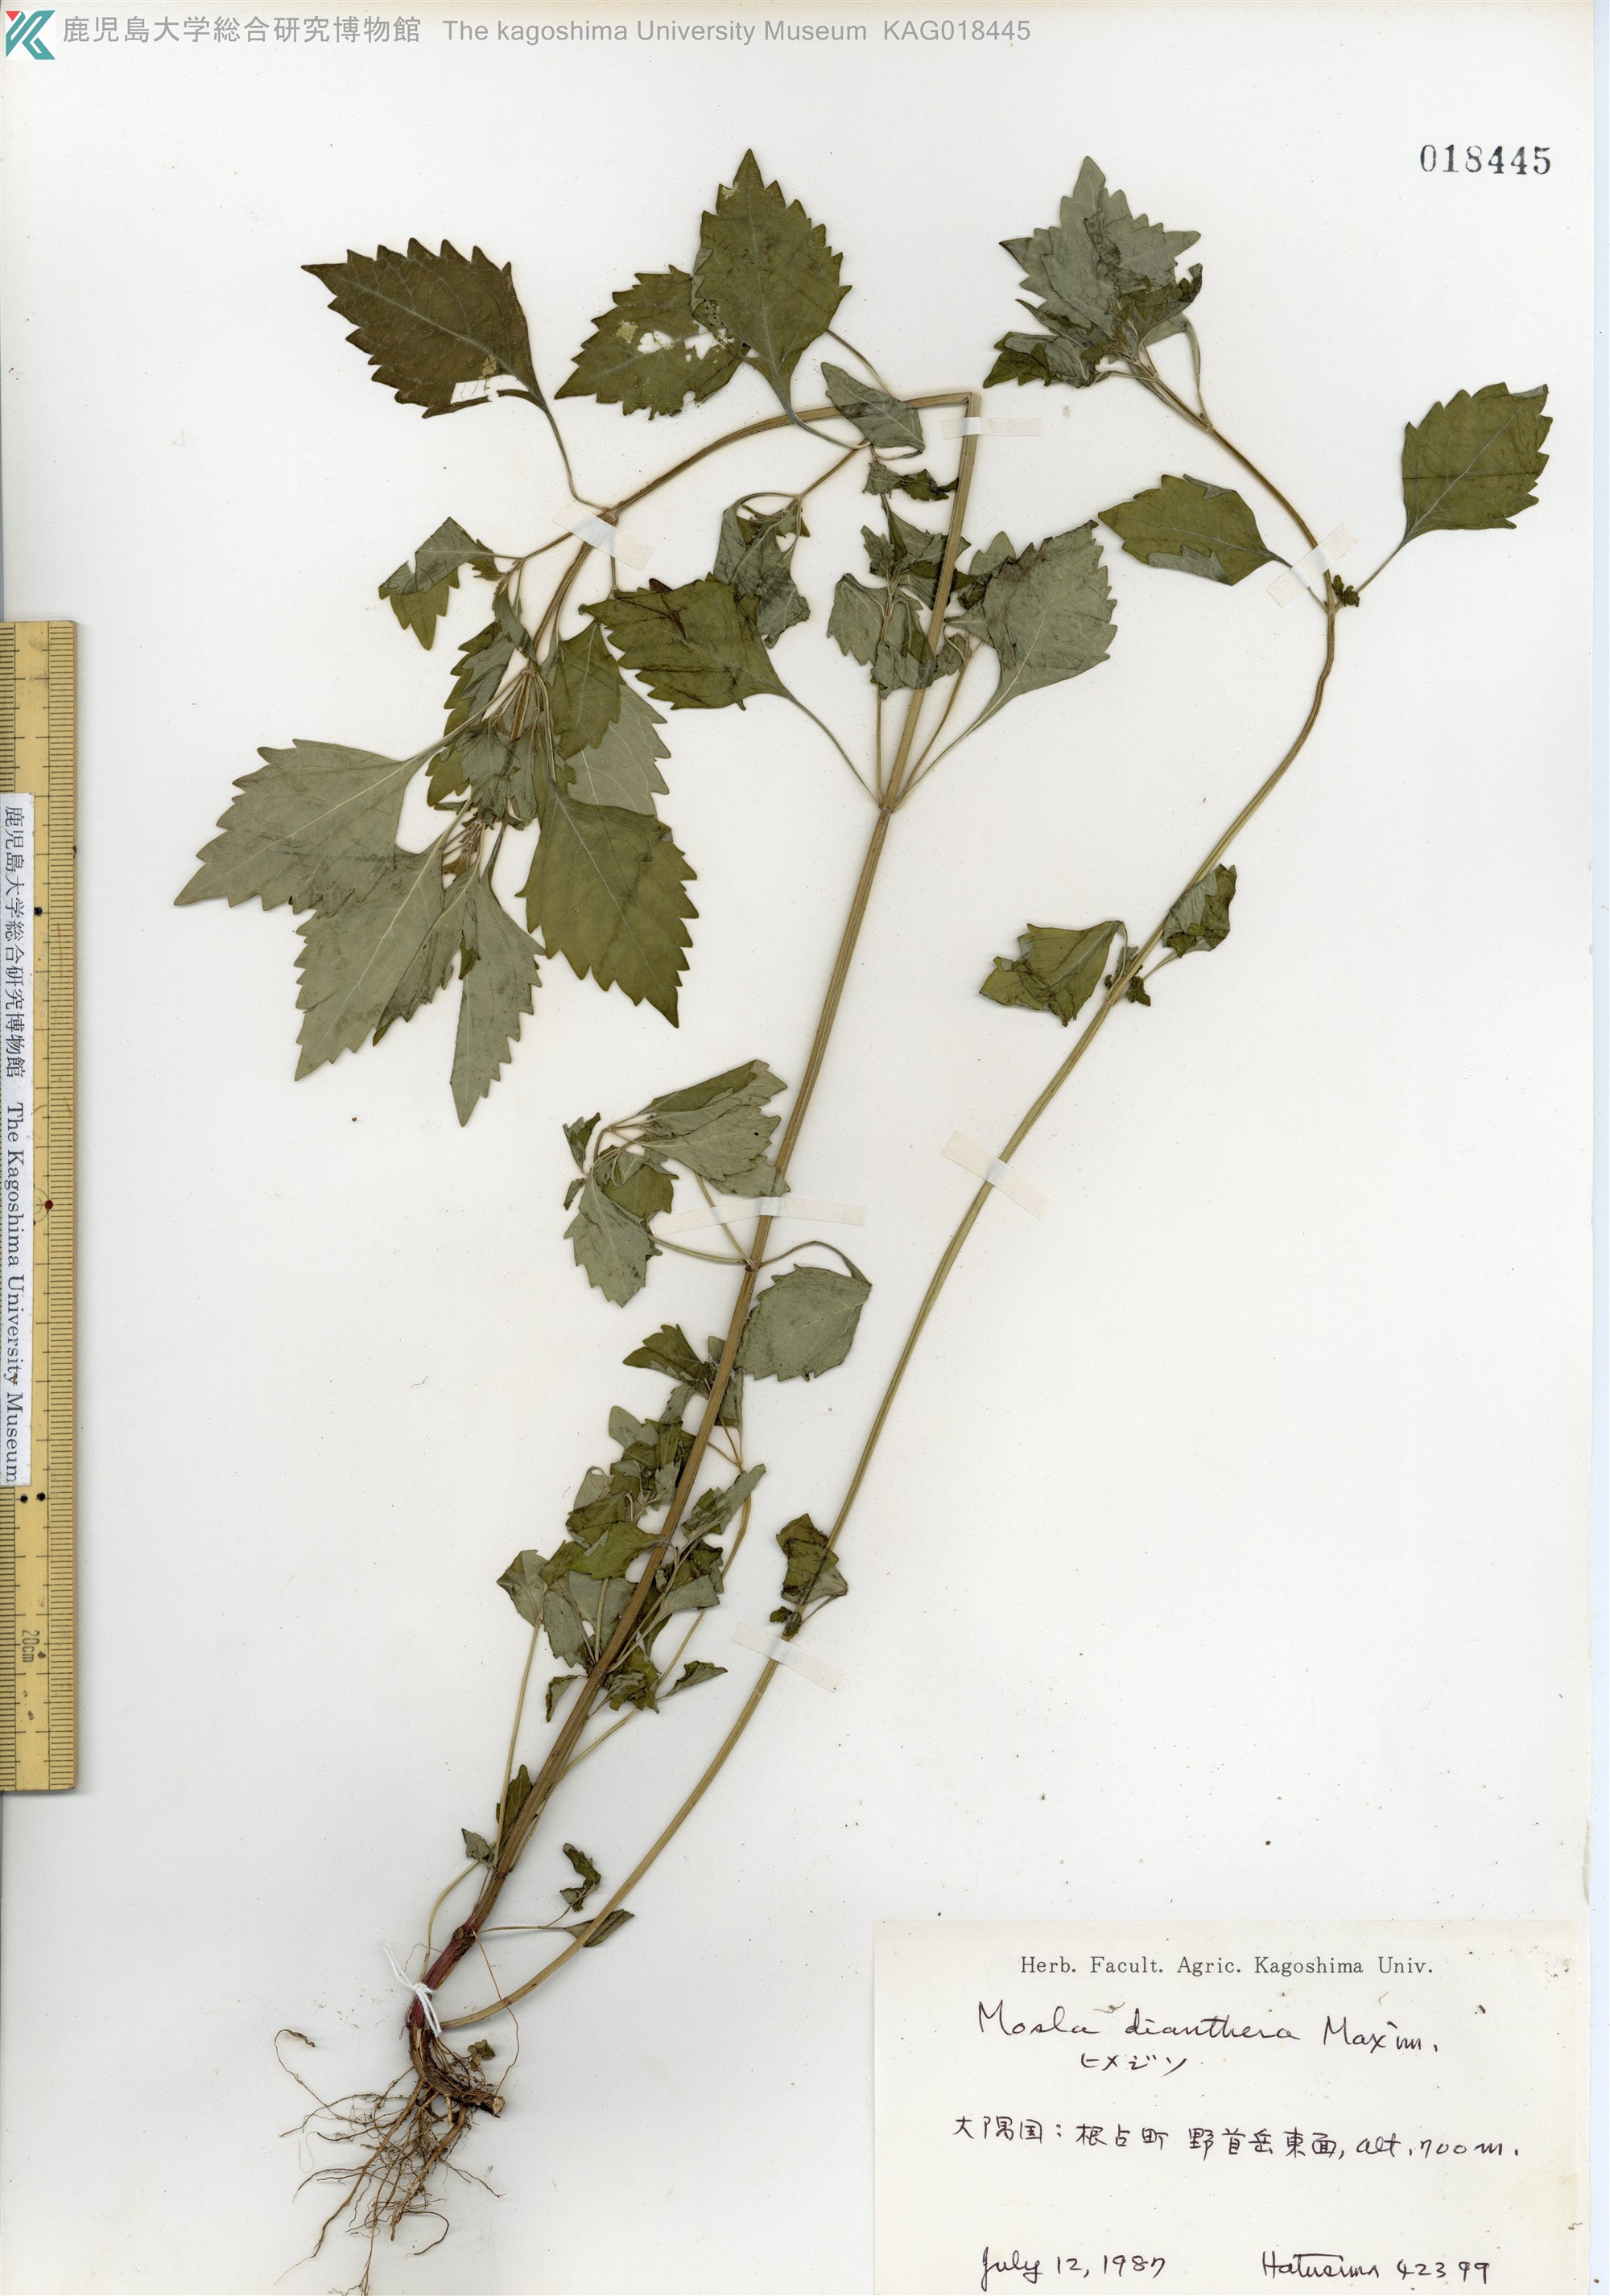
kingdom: Plantae
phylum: Tracheophyta
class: Magnoliopsida
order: Lamiales
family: Lamiaceae
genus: Mosla
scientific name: Mosla dianthera
